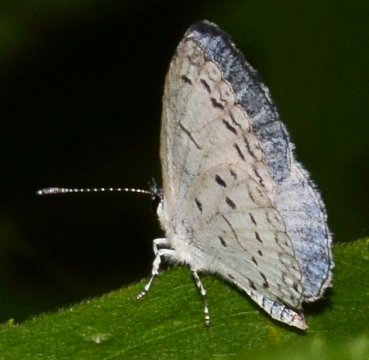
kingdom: Animalia
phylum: Arthropoda
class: Insecta
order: Lepidoptera
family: Lycaenidae
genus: Cyaniris
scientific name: Cyaniris neglecta
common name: Summer Azure
